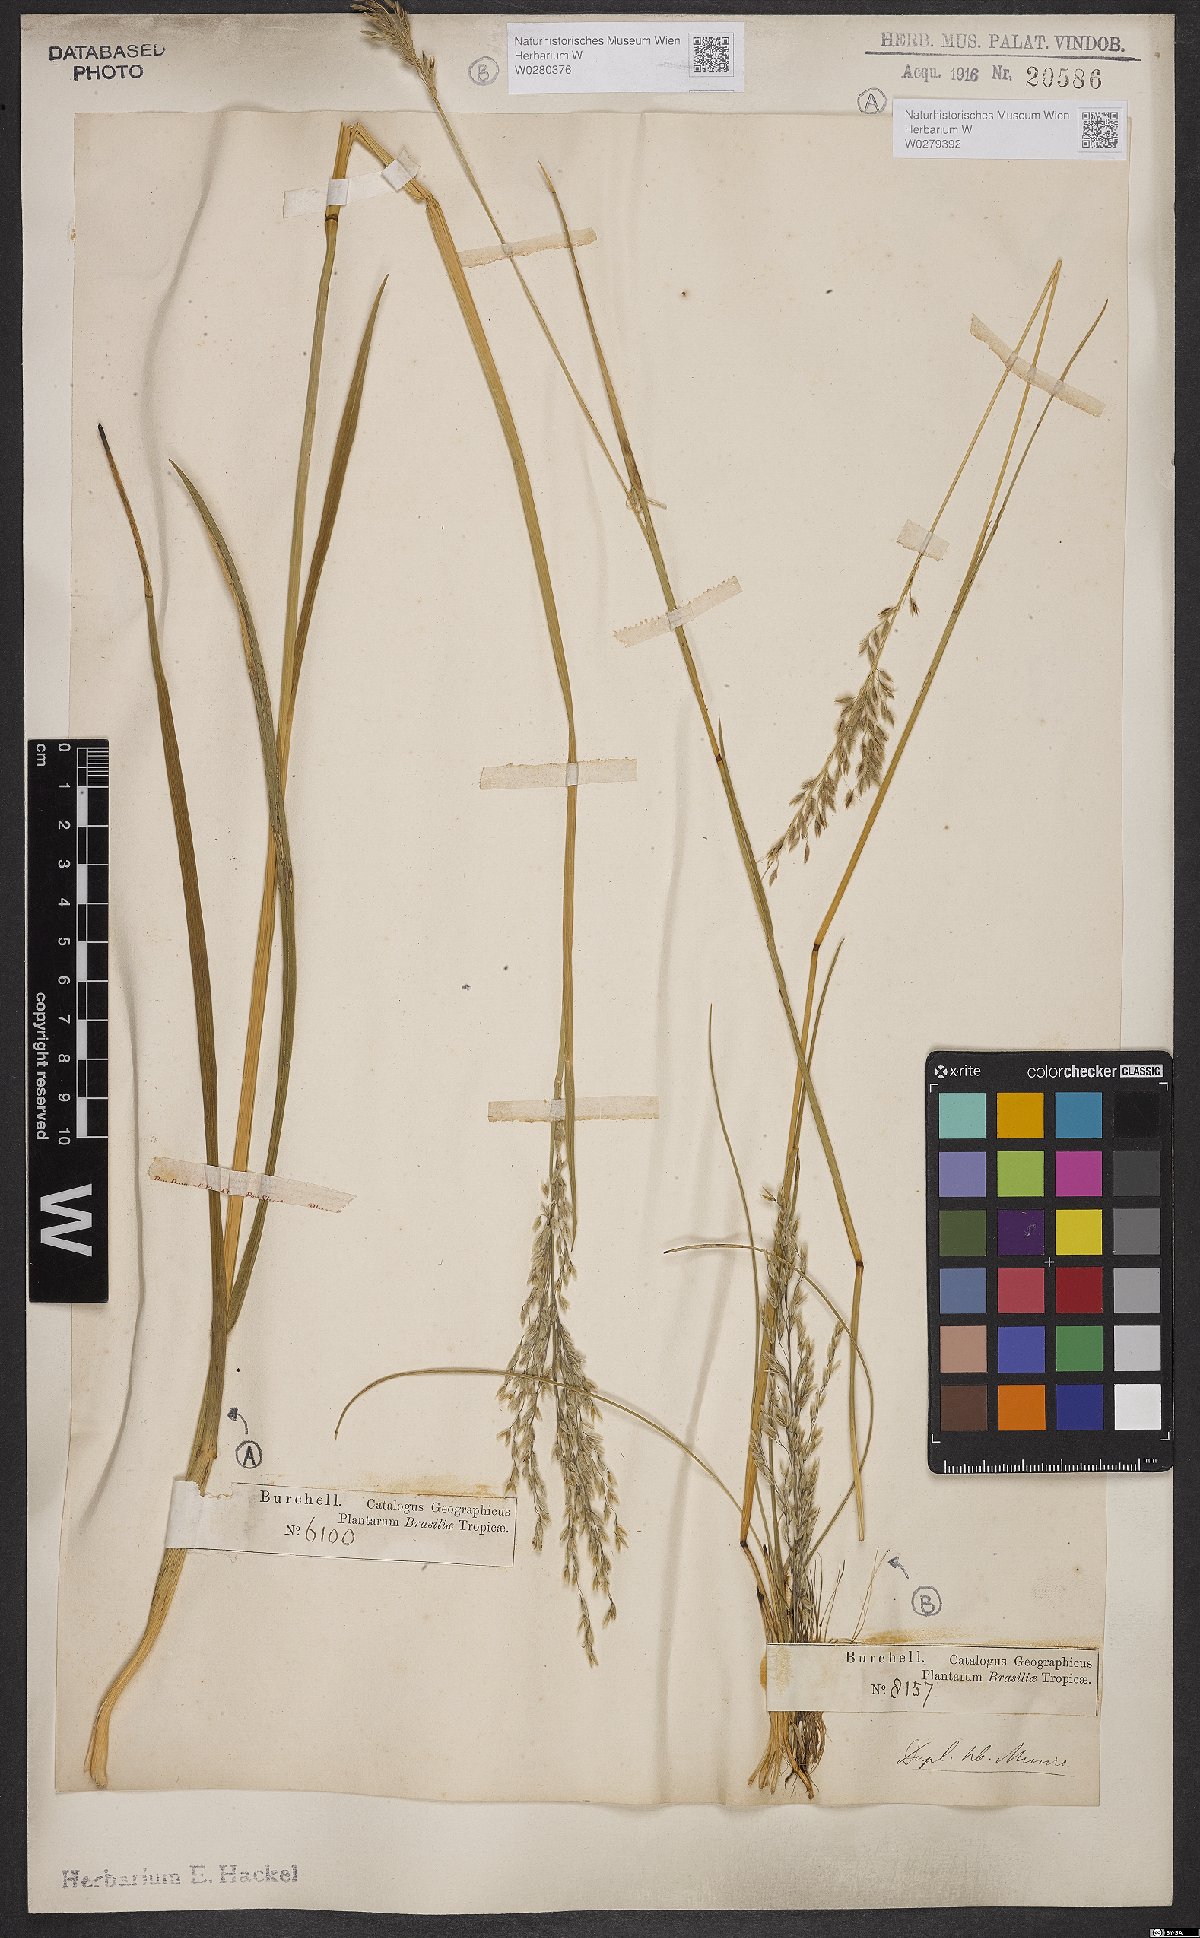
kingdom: Plantae
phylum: Tracheophyta
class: Liliopsida
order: Poales
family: Poaceae
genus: Anthaenantia
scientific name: Anthaenantia lanata
